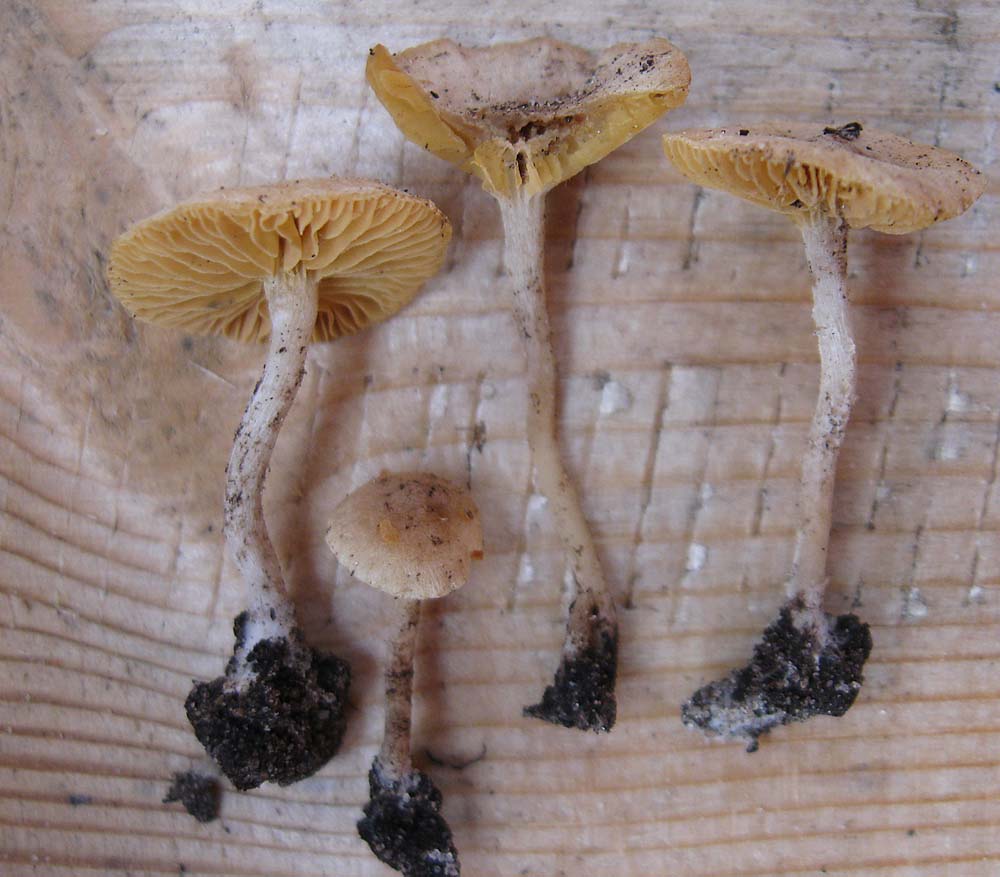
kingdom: Fungi
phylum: Basidiomycota
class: Agaricomycetes
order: Agaricales
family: Tubariaceae
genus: Tubaria
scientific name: Tubaria dispersa
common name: tjørne-fnughat
